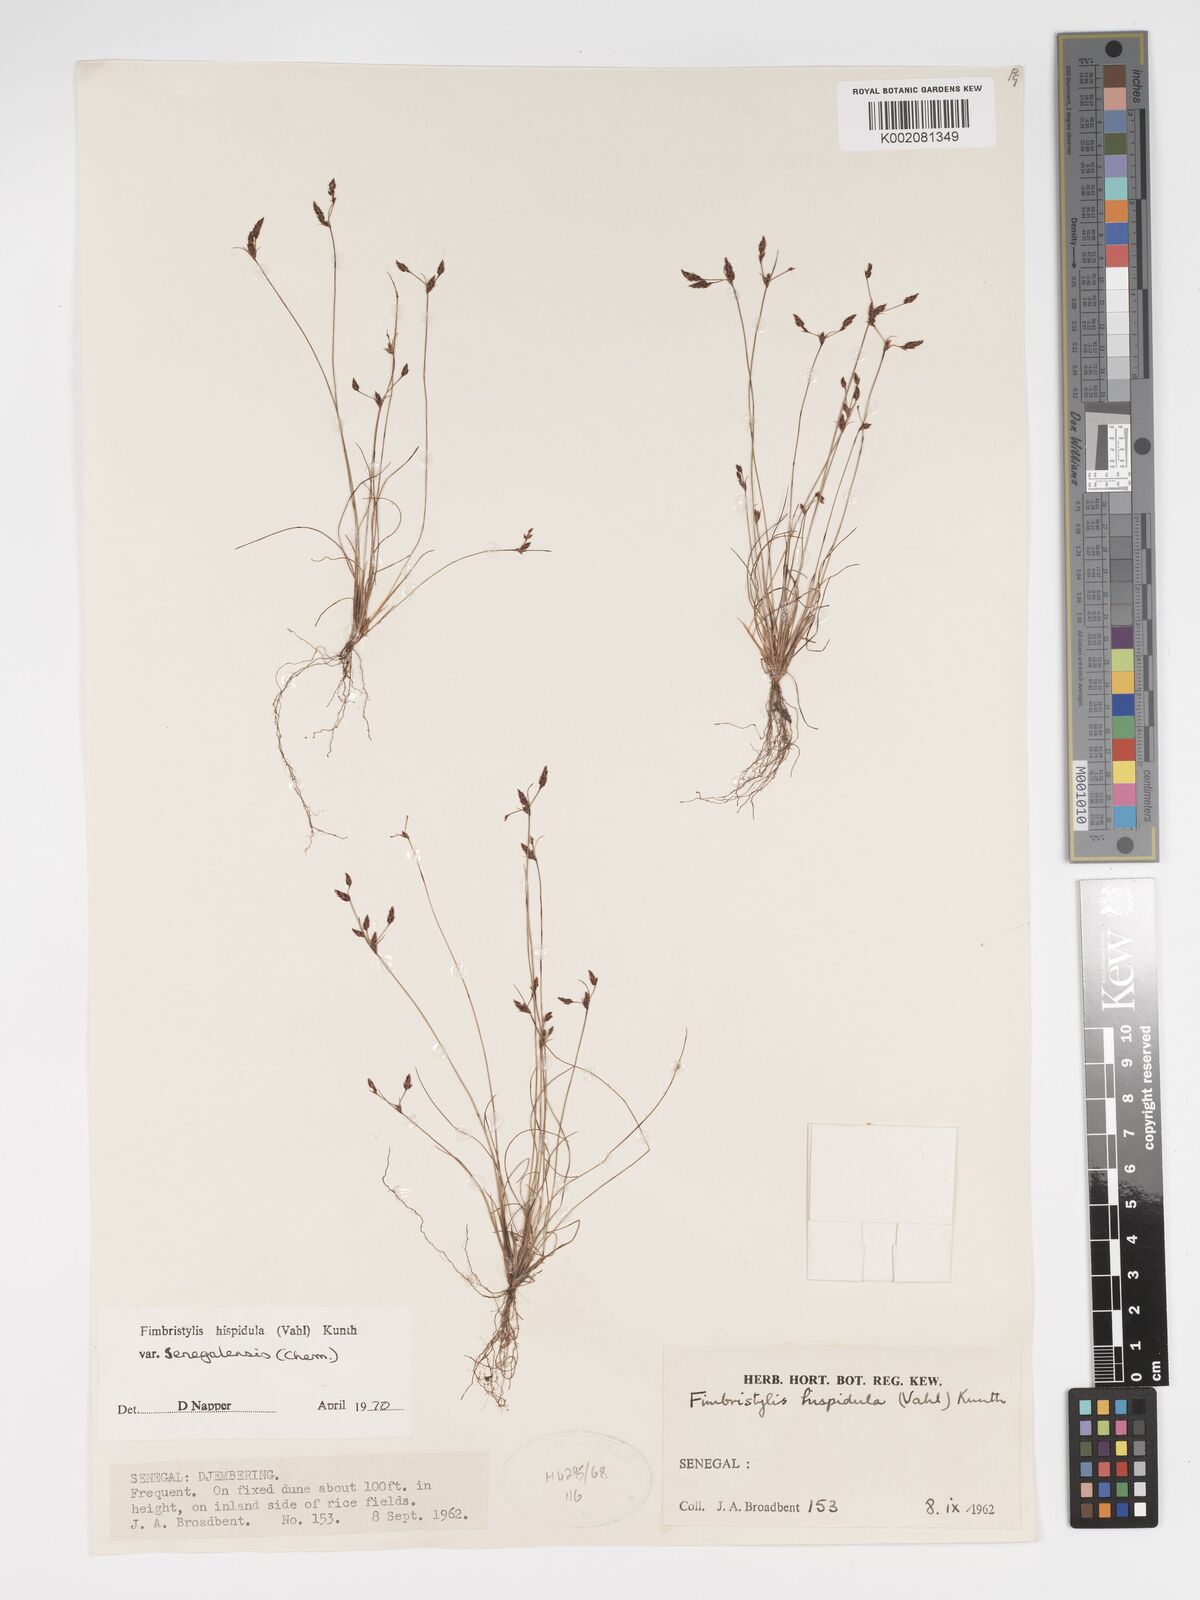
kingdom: Plantae
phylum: Tracheophyta
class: Liliopsida
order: Poales
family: Cyperaceae
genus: Bulbostylis
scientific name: Bulbostylis hispidula
